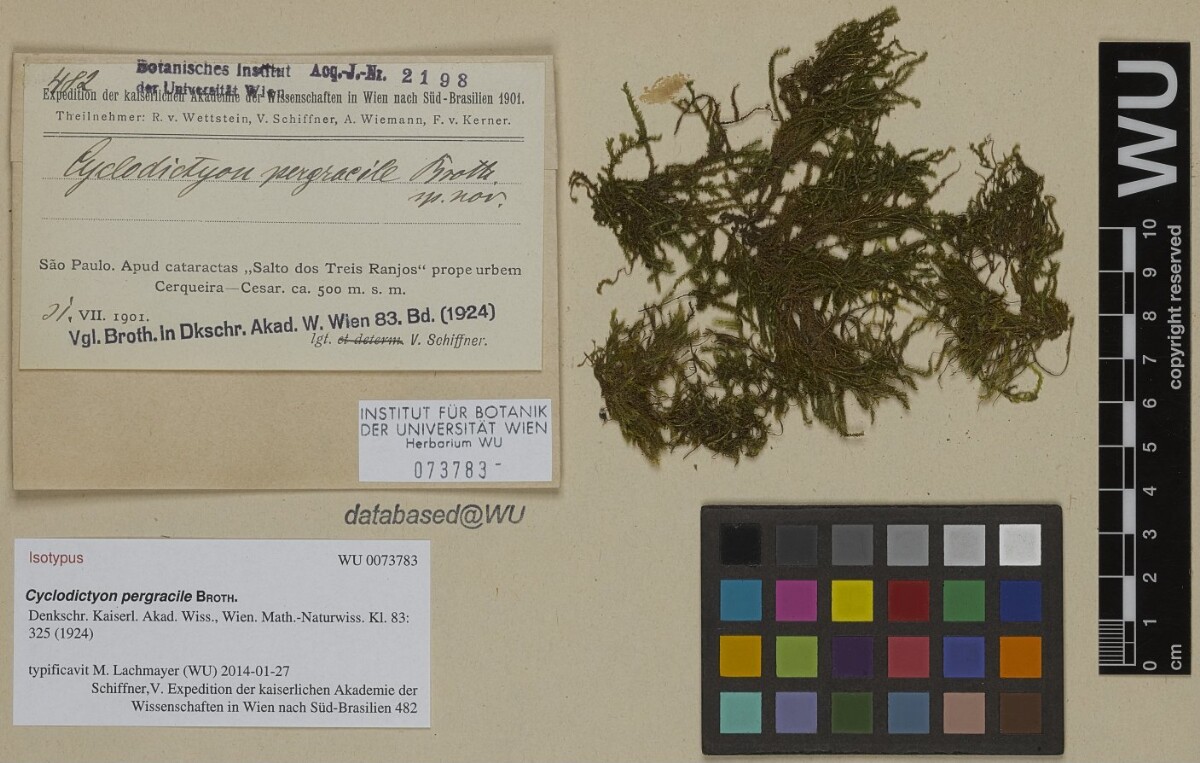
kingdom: Plantae
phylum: Bryophyta
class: Bryopsida
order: Hookeriales
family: Pilotrichaceae
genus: Cyclodictyon
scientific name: Cyclodictyon pergracile
